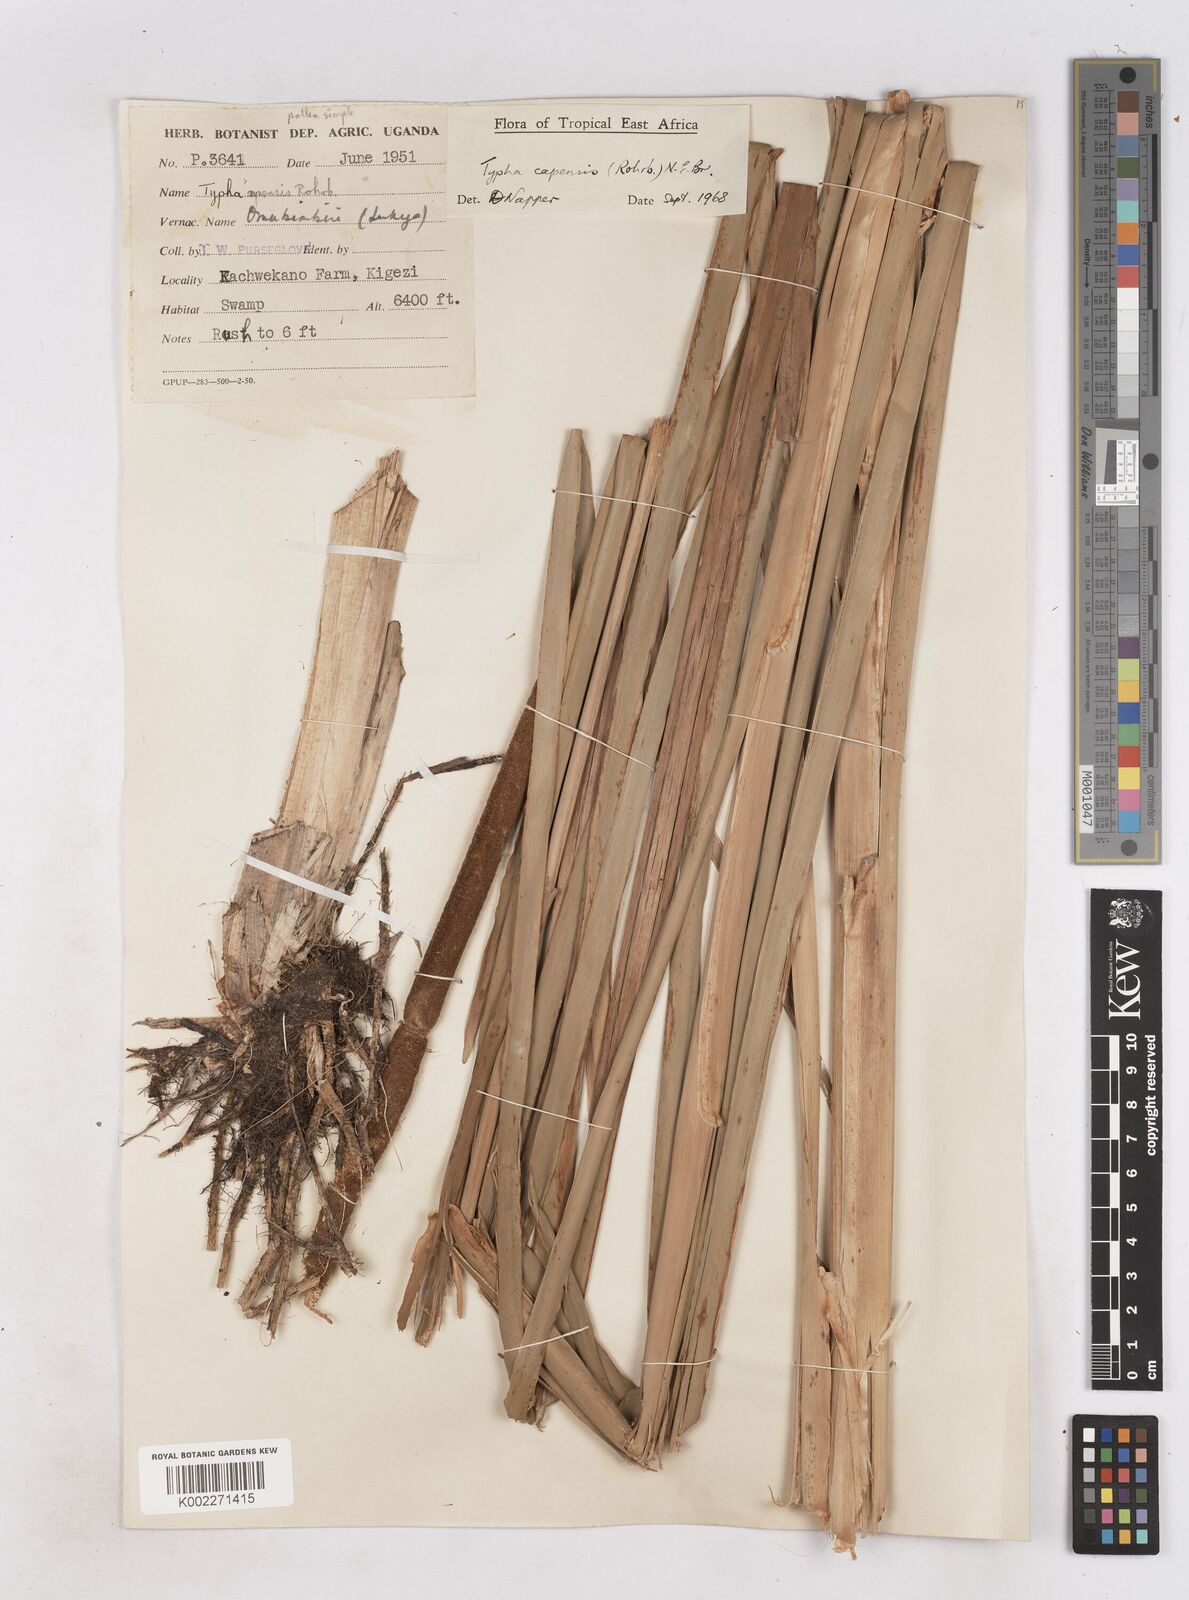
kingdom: Plantae
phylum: Tracheophyta
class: Liliopsida
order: Poales
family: Typhaceae
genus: Typha
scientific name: Typha capensis
